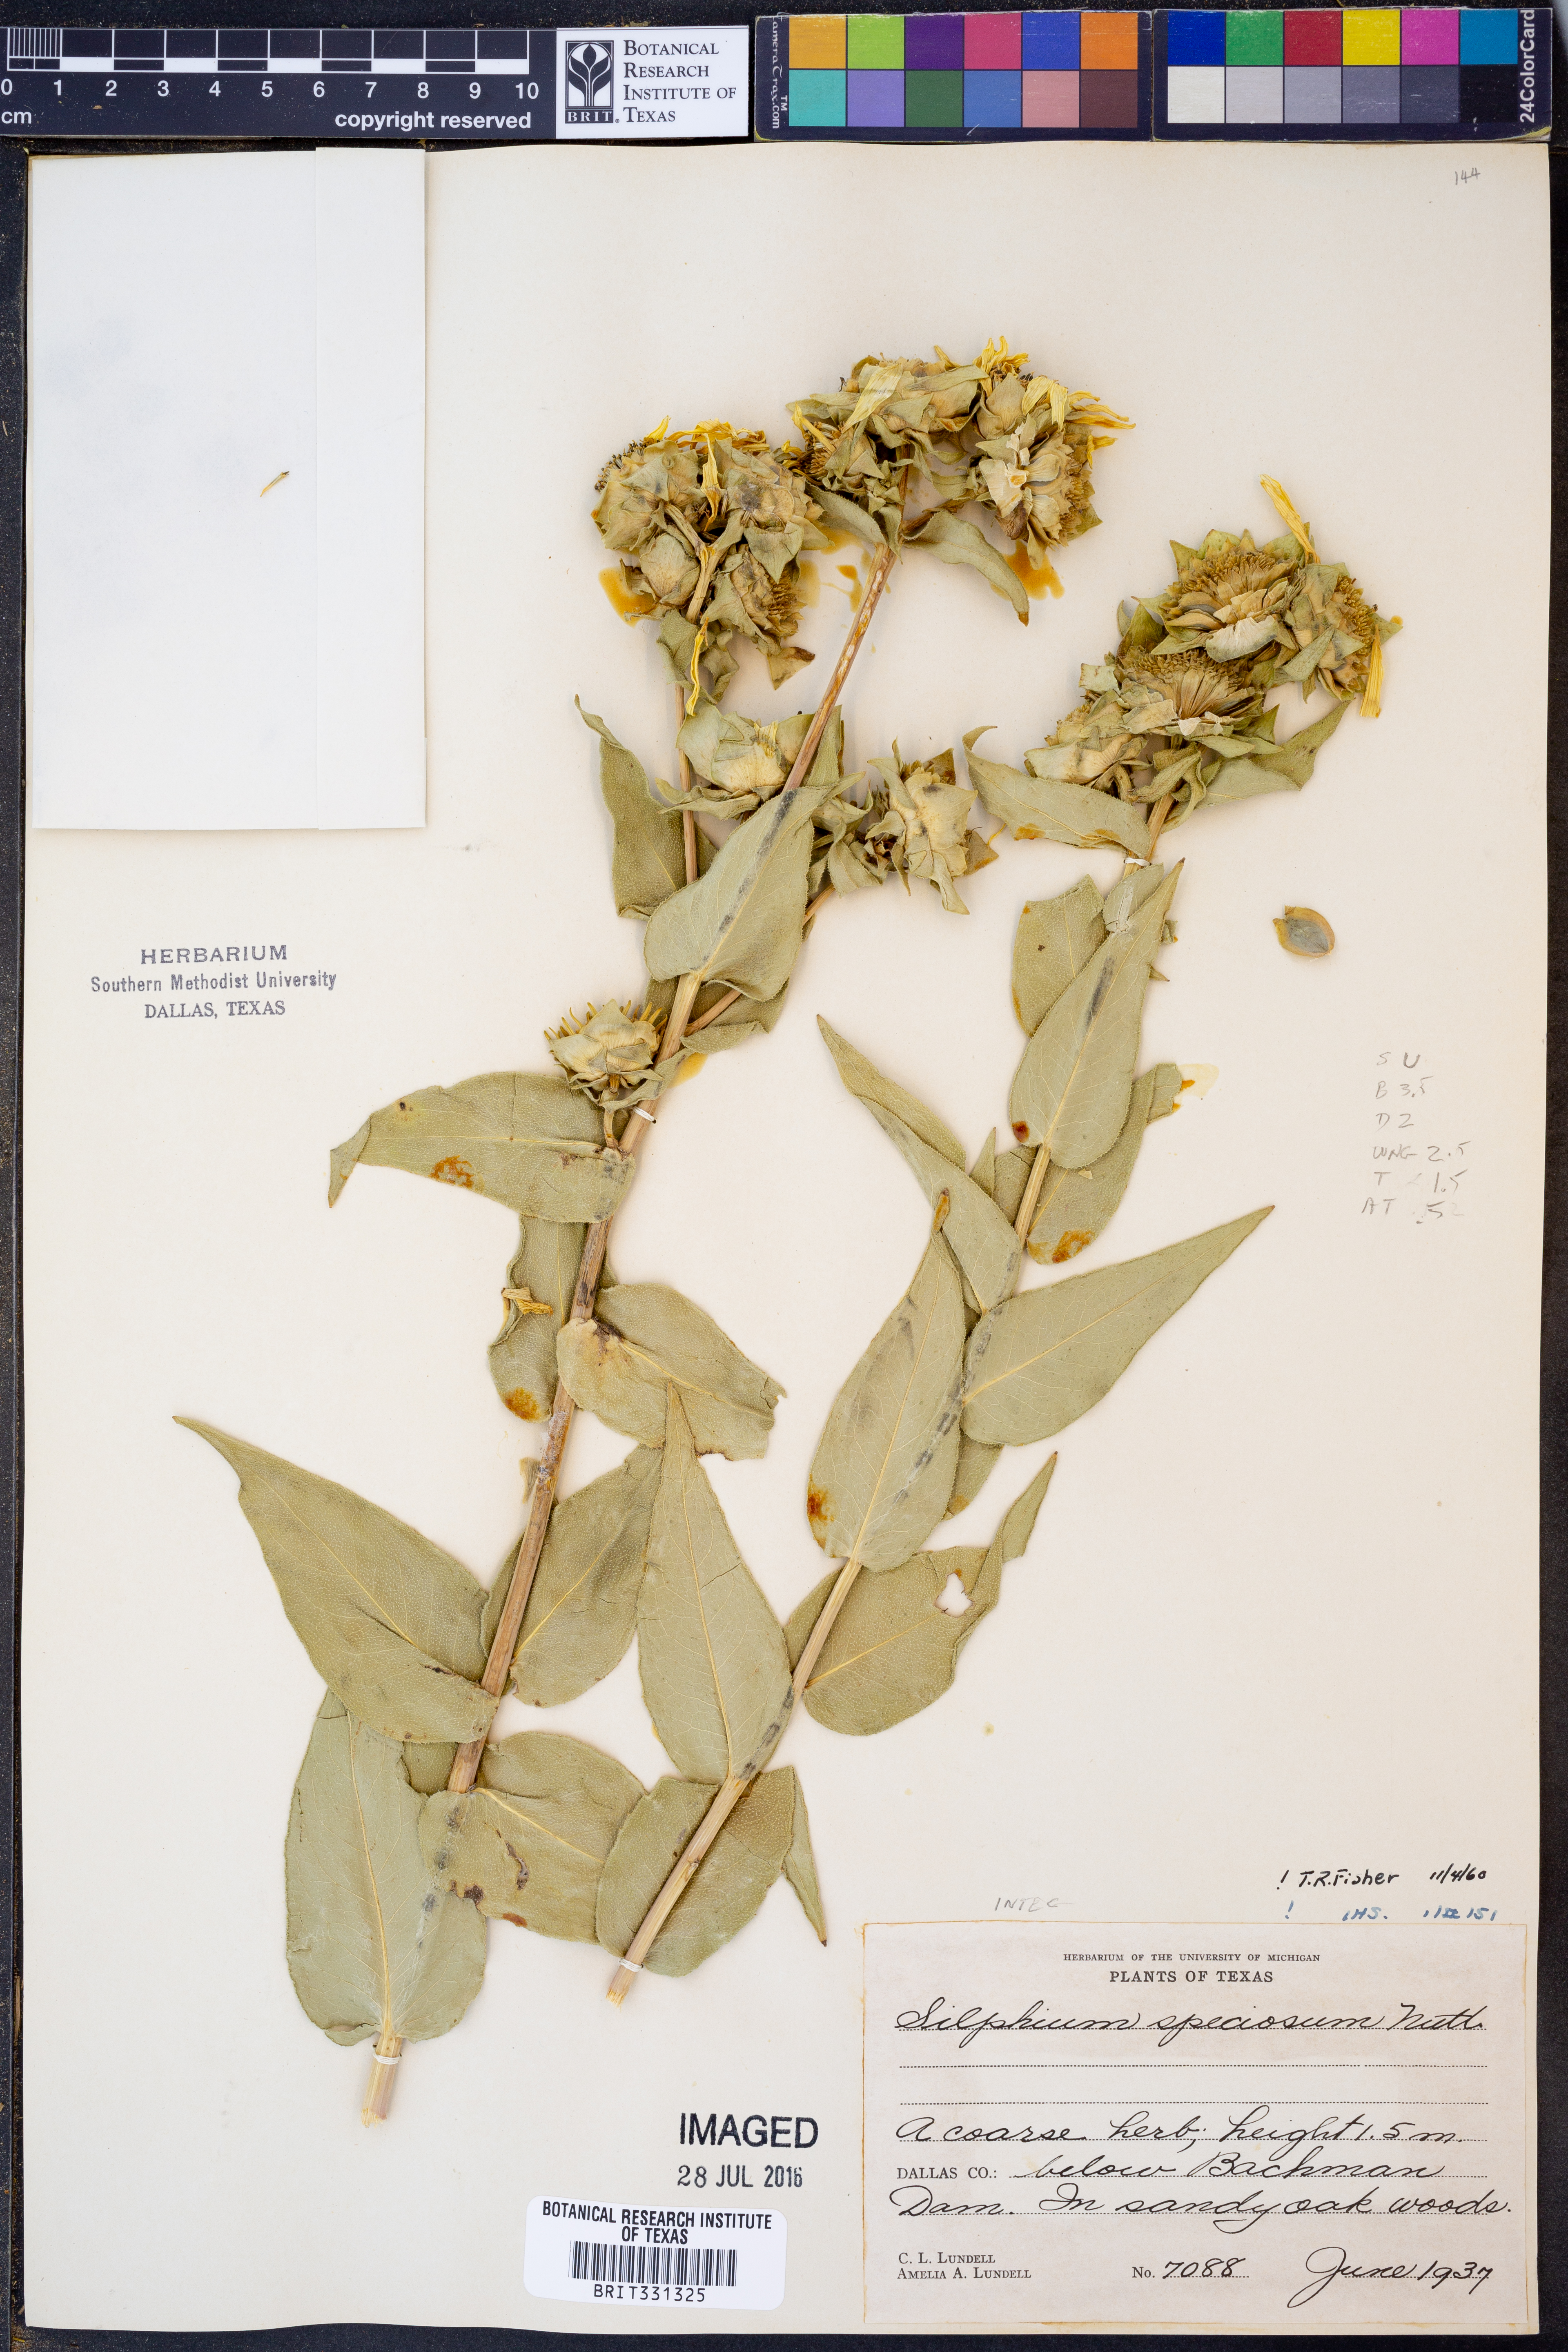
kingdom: Plantae
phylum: Tracheophyta
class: Magnoliopsida
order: Asterales
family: Asteraceae
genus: Silphium
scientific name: Silphium integrifolium
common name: Whole-leaf rosinweed
